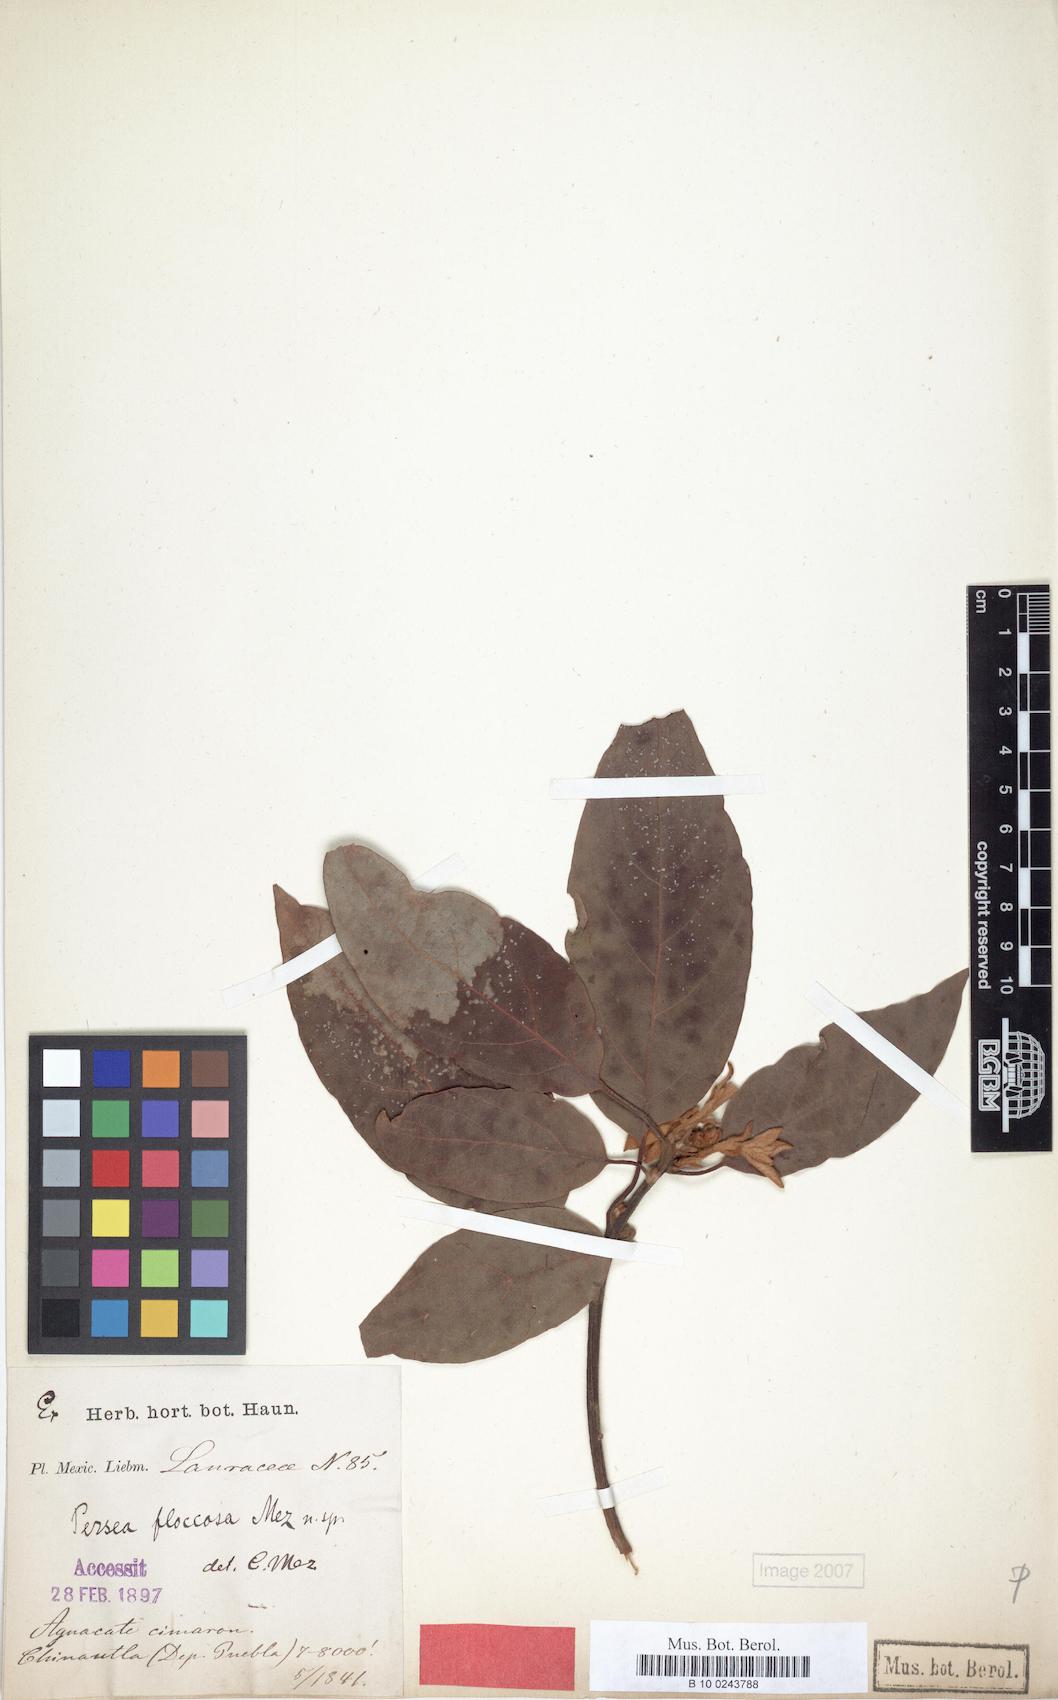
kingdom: Plantae
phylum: Tracheophyta
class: Magnoliopsida
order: Laurales
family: Lauraceae
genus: Persea
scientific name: Persea americana
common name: Avocado
